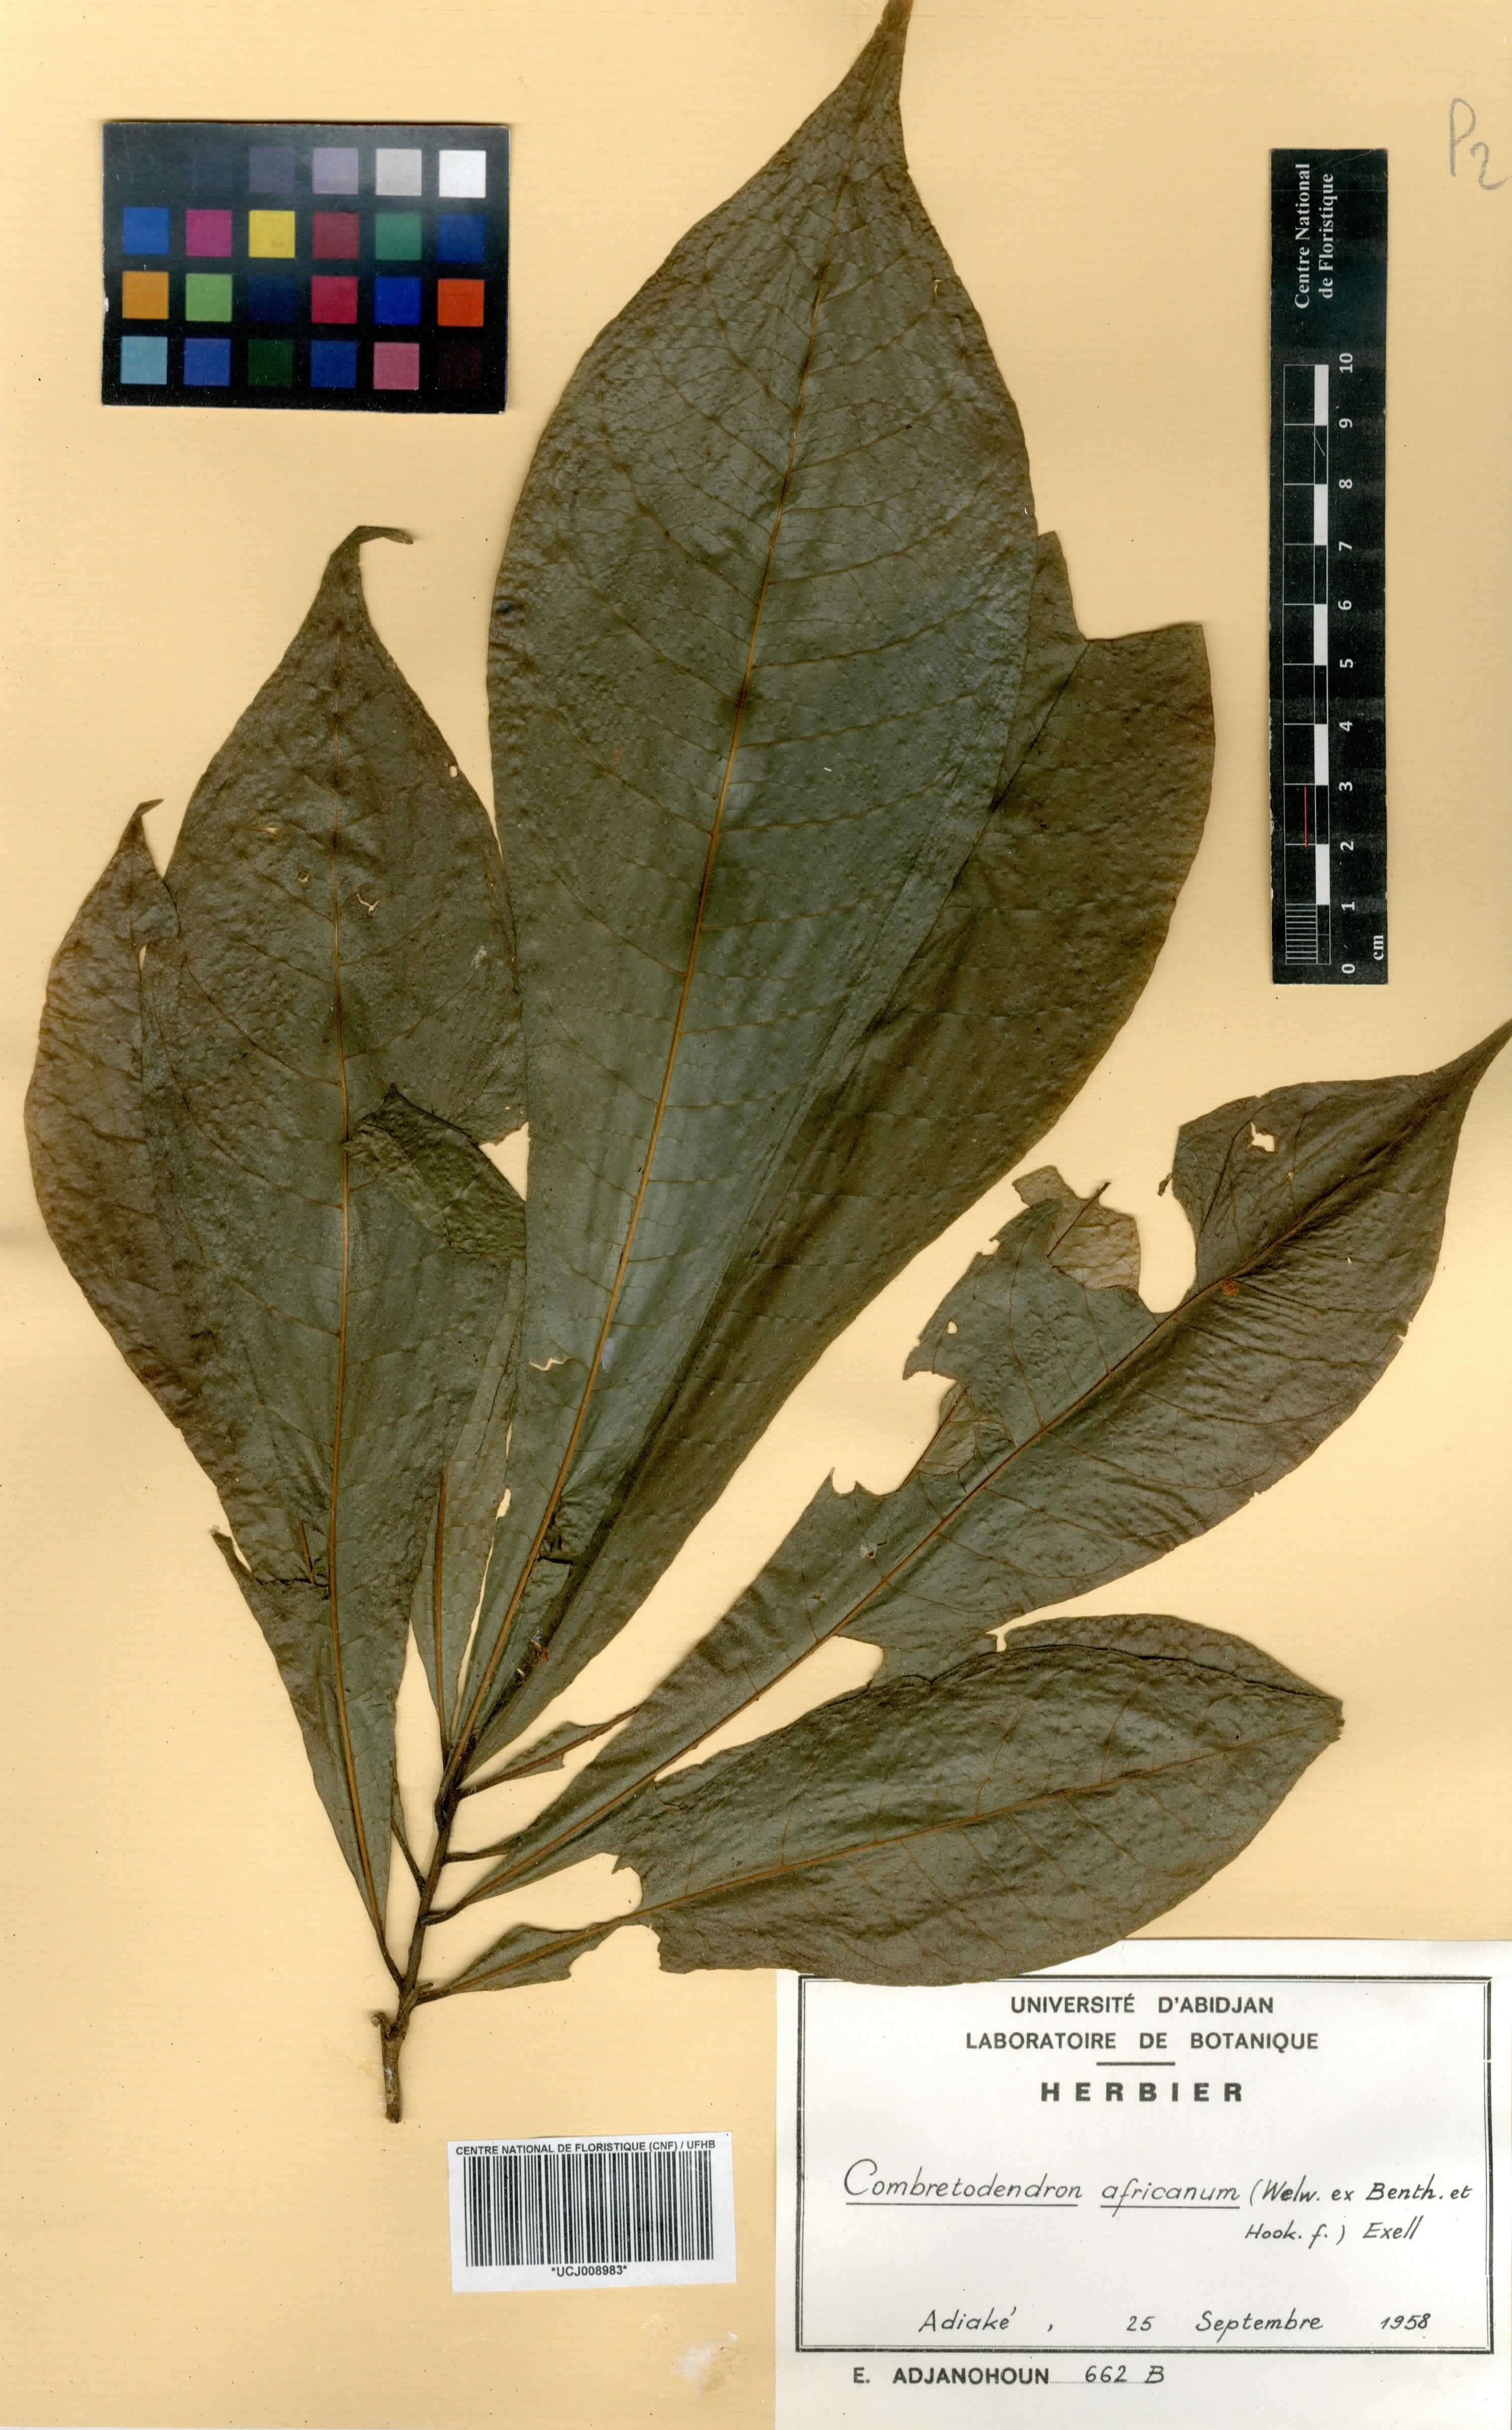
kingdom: Plantae
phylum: Tracheophyta
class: Magnoliopsida
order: Ericales
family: Lecythidaceae
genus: Petersianthus
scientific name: Petersianthus macrocarpus
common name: Essia
